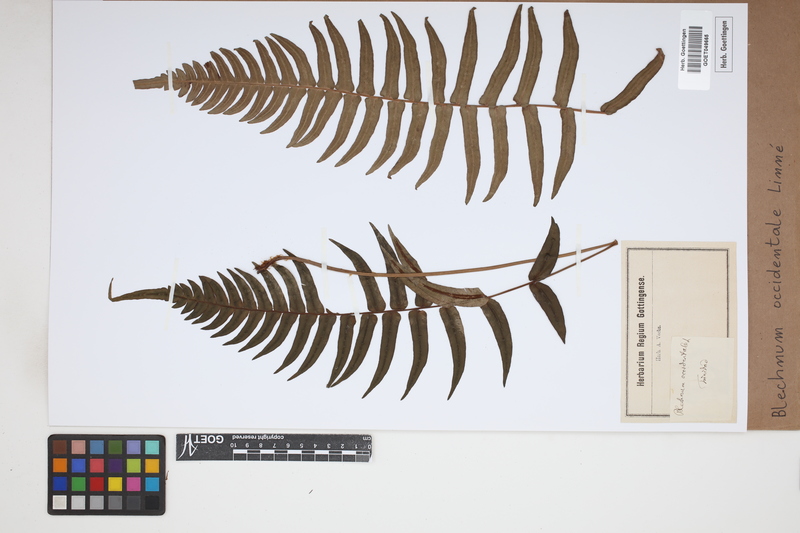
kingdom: Plantae
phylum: Tracheophyta
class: Polypodiopsida
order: Polypodiales
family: Blechnaceae
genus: Blechnum
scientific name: Blechnum occidentale
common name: Hammock fern
